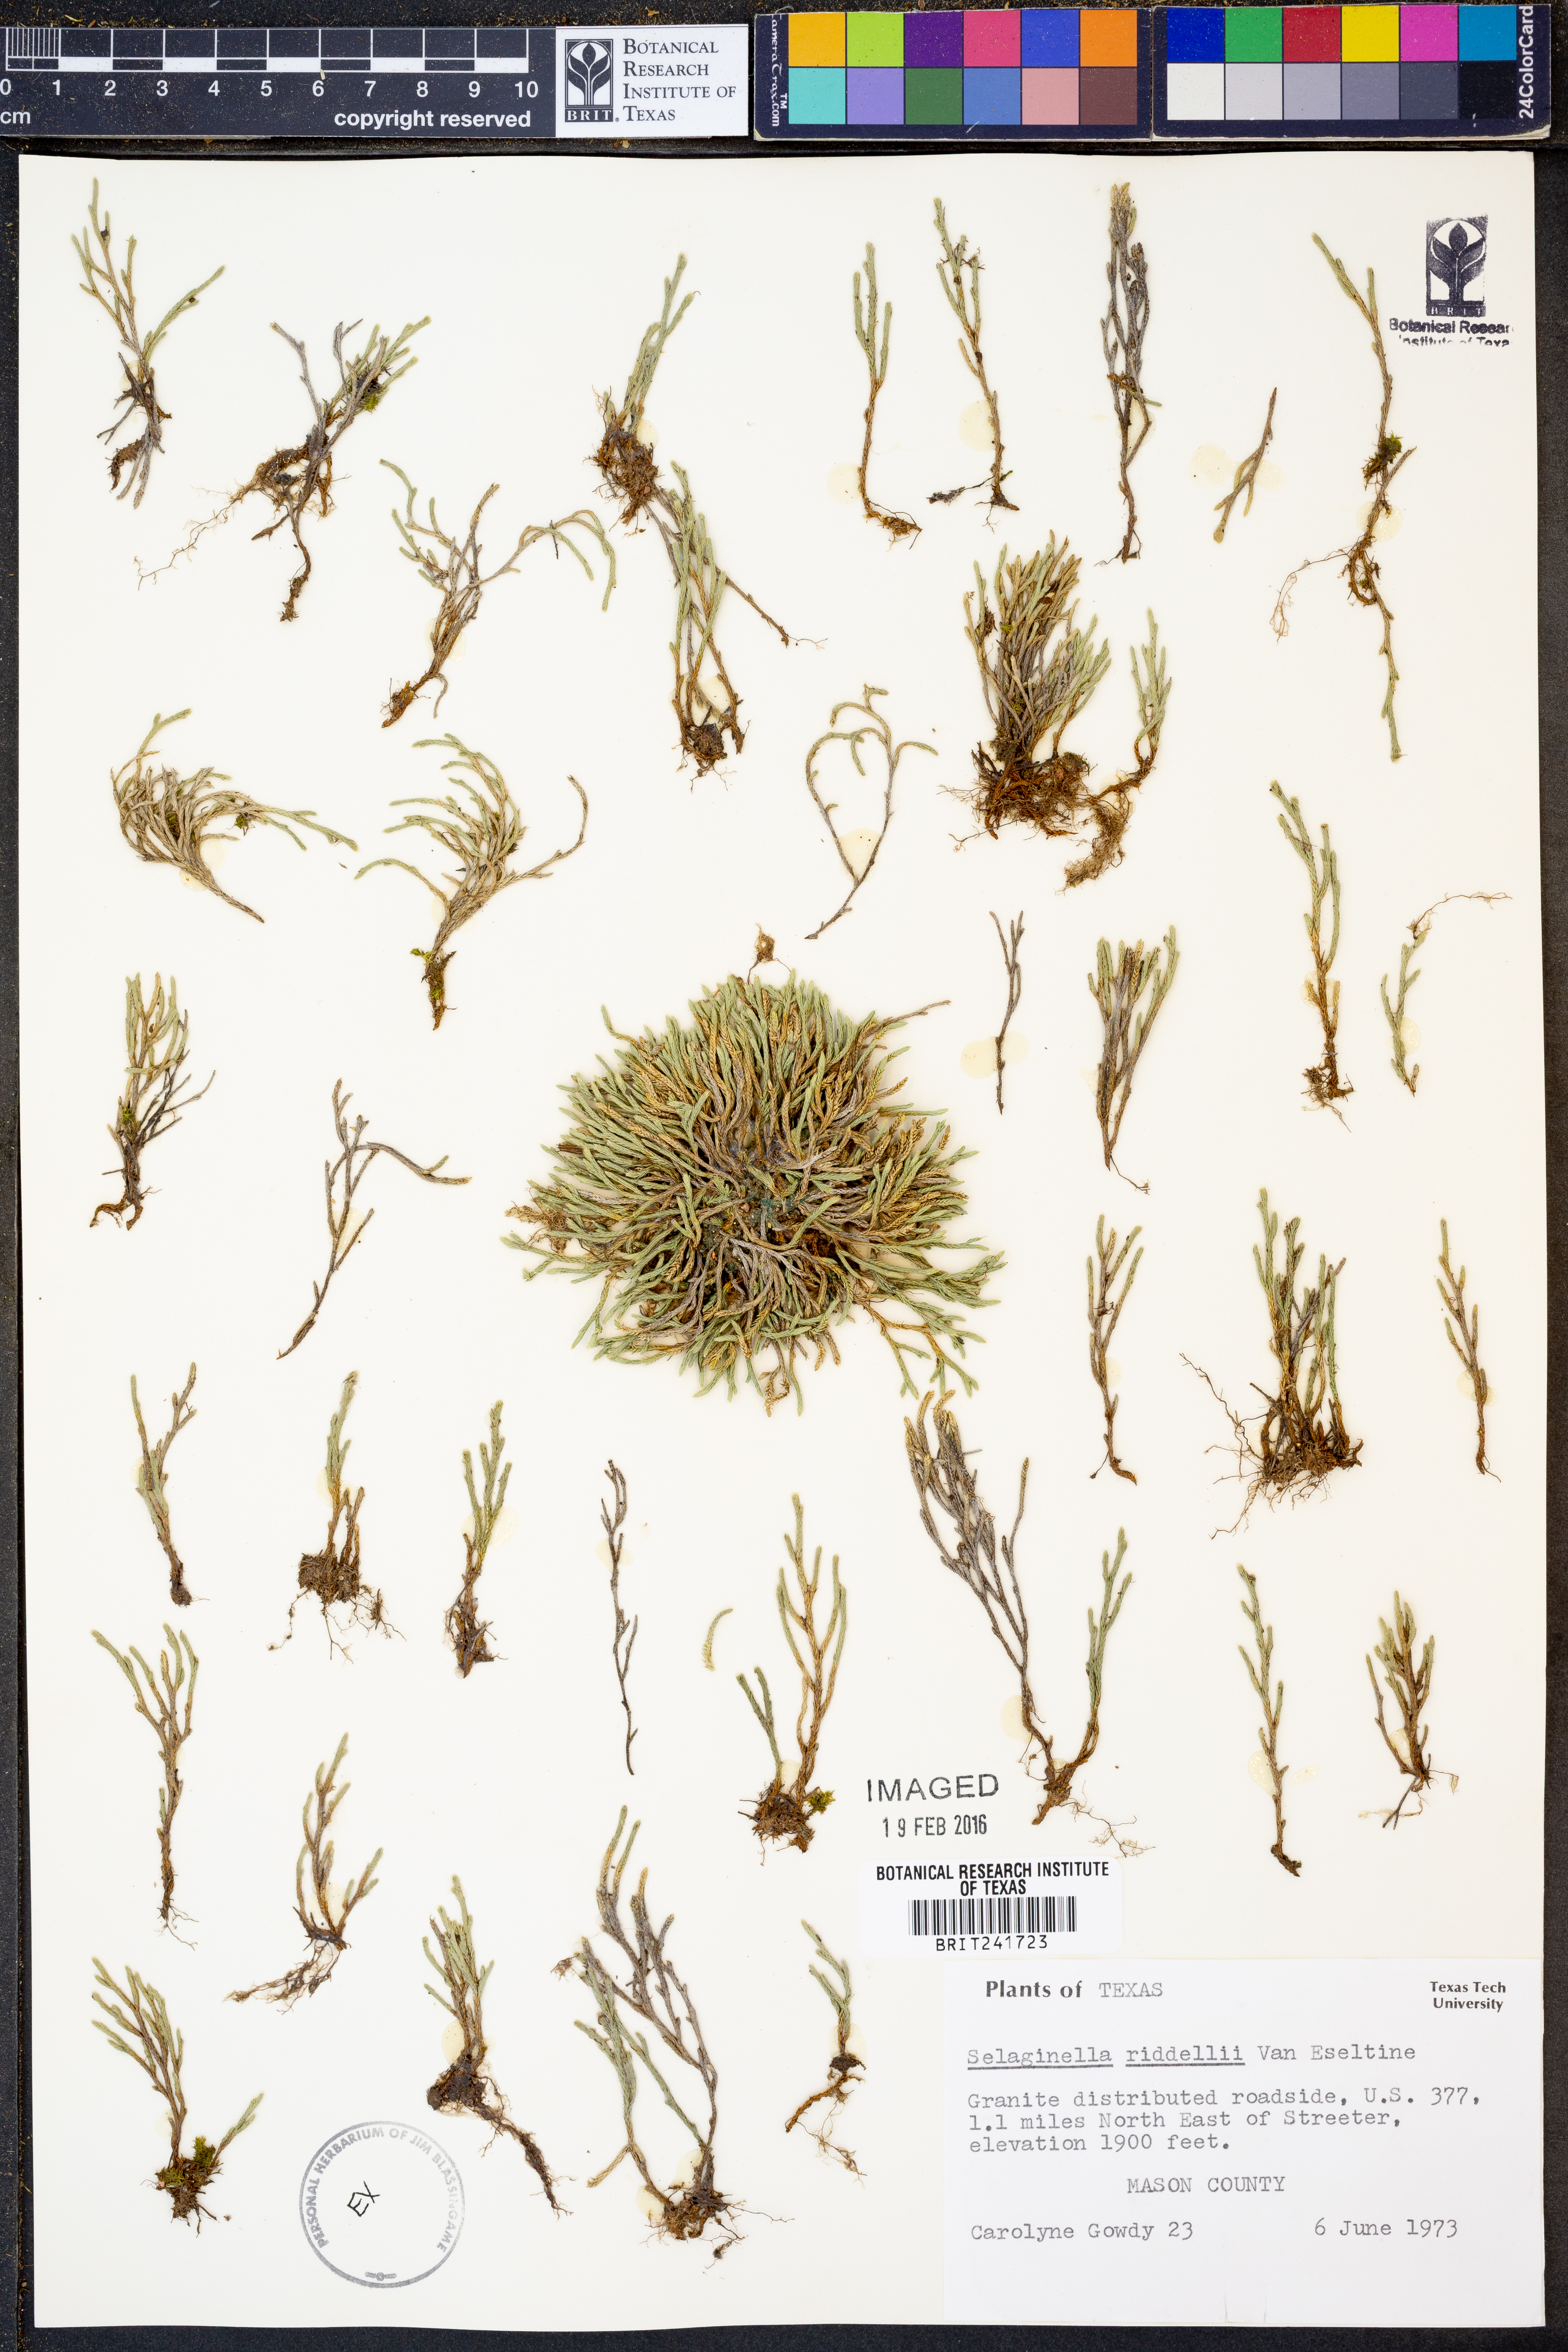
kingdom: Plantae
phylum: Tracheophyta
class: Lycopodiopsida
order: Selaginellales
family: Selaginellaceae
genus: Selaginella
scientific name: Selaginella corallina
